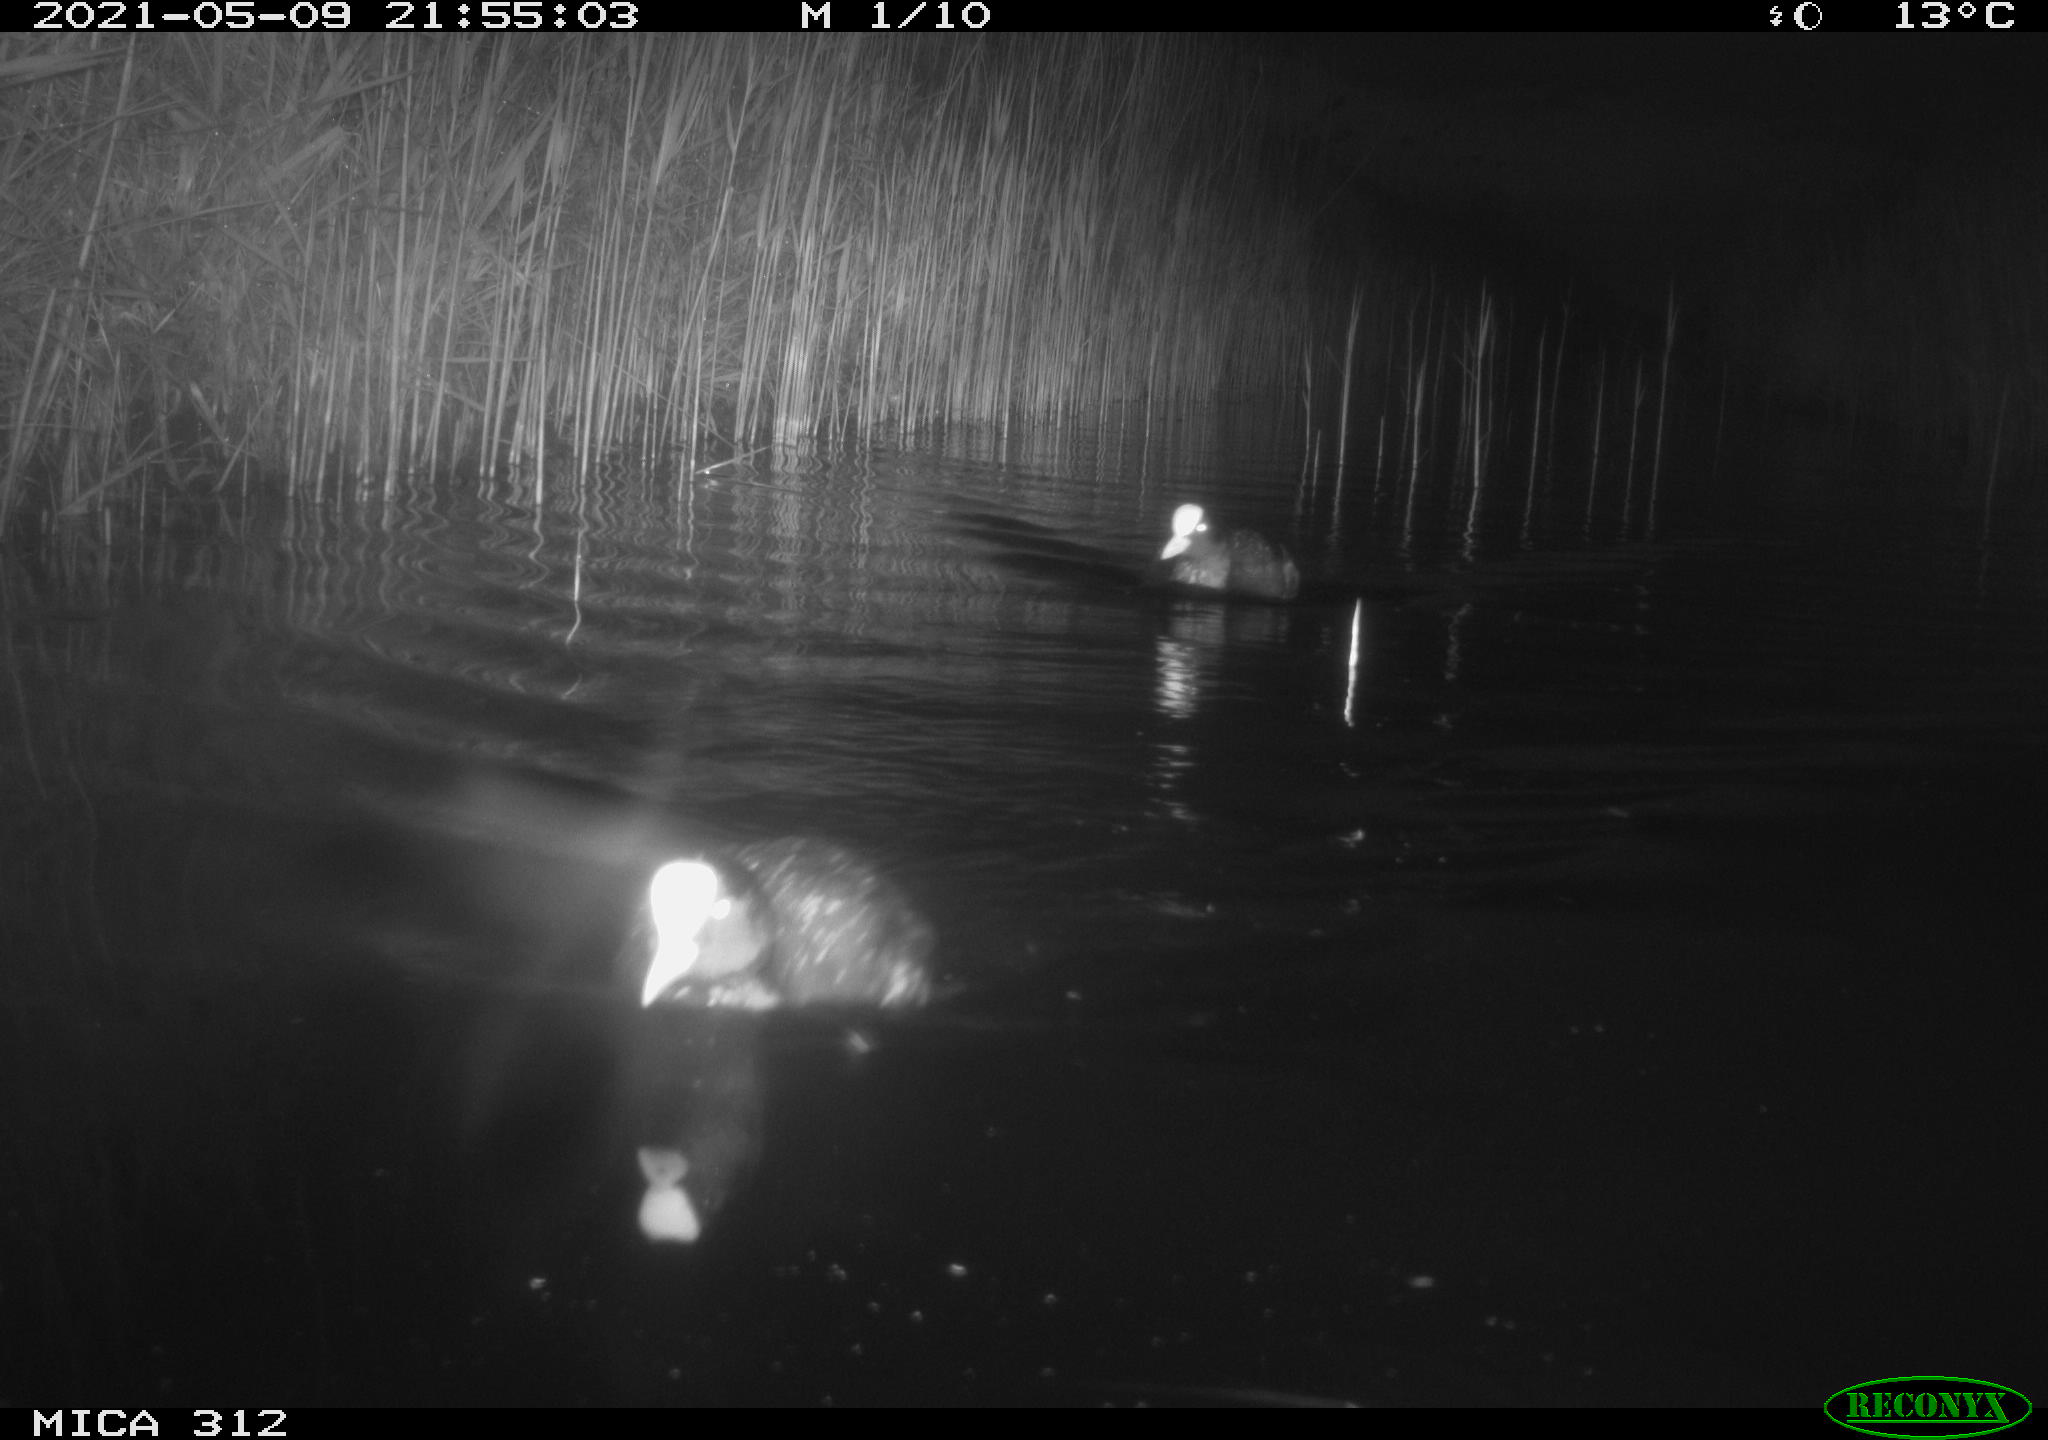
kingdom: Animalia
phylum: Chordata
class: Aves
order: Gruiformes
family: Rallidae
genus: Fulica
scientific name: Fulica atra
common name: Eurasian coot
